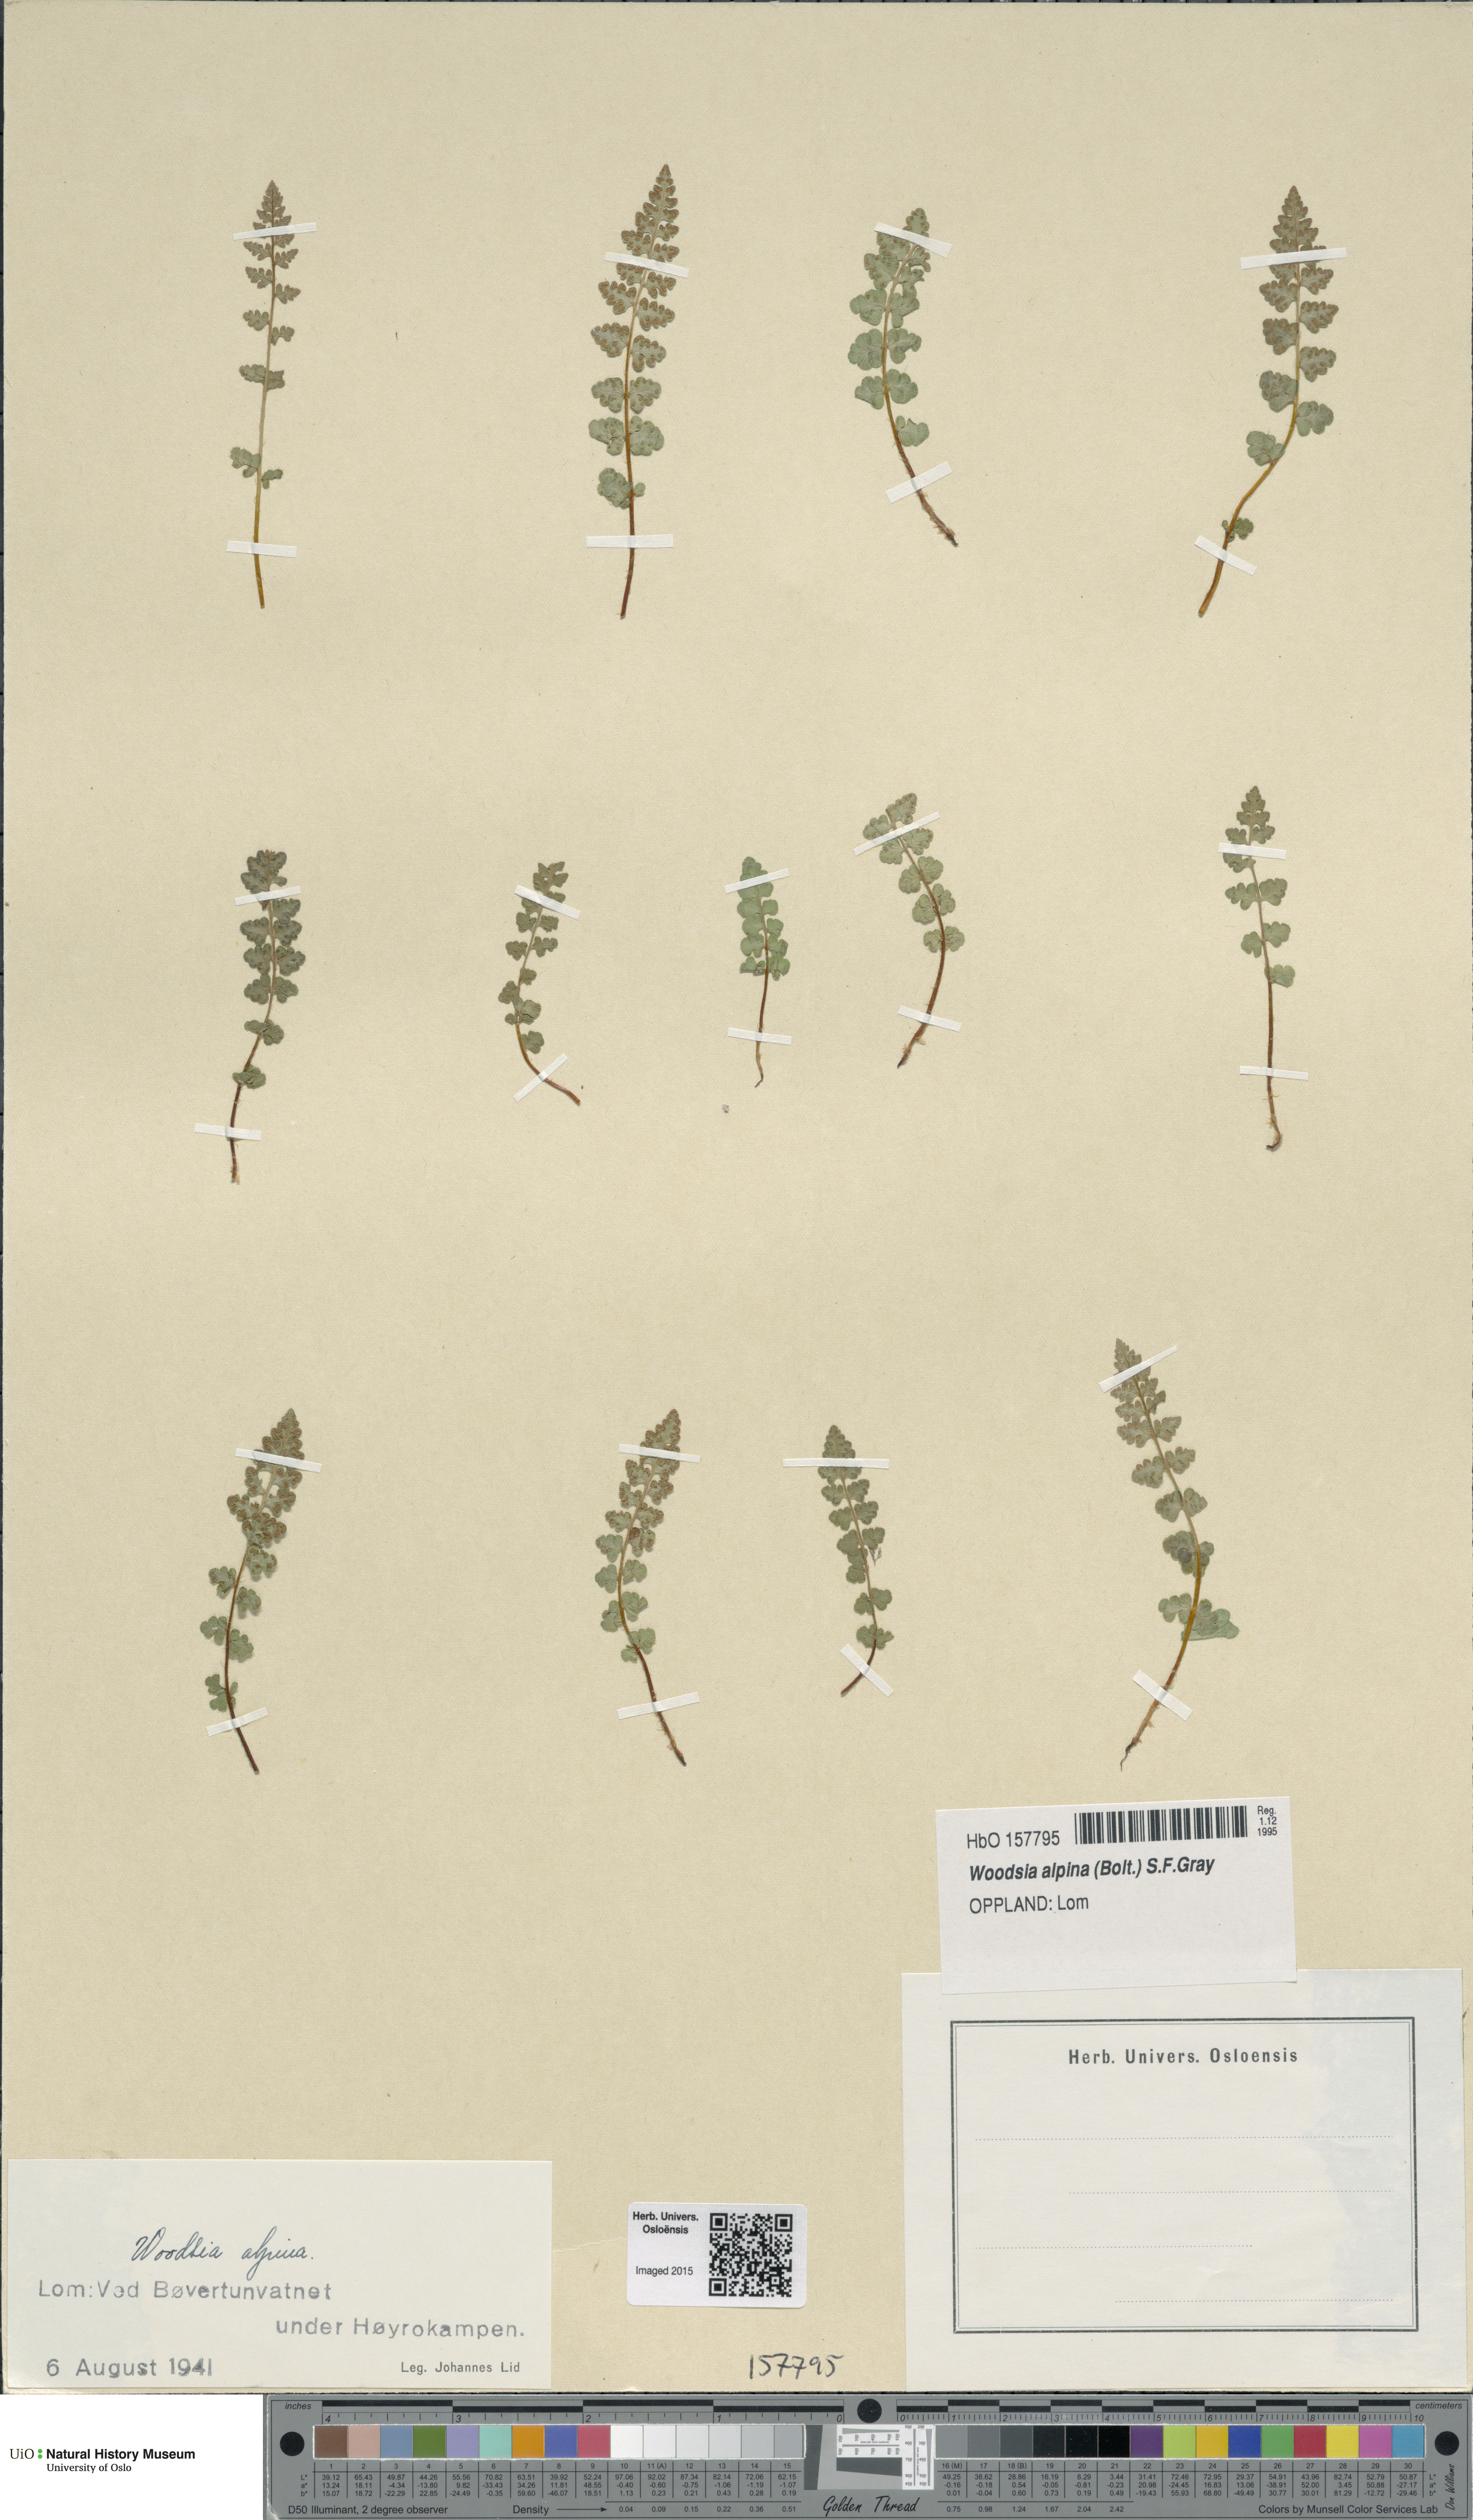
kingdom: Plantae
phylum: Tracheophyta
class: Polypodiopsida
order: Polypodiales
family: Woodsiaceae
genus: Woodsia
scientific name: Woodsia alpina
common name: Alpine woodsia
